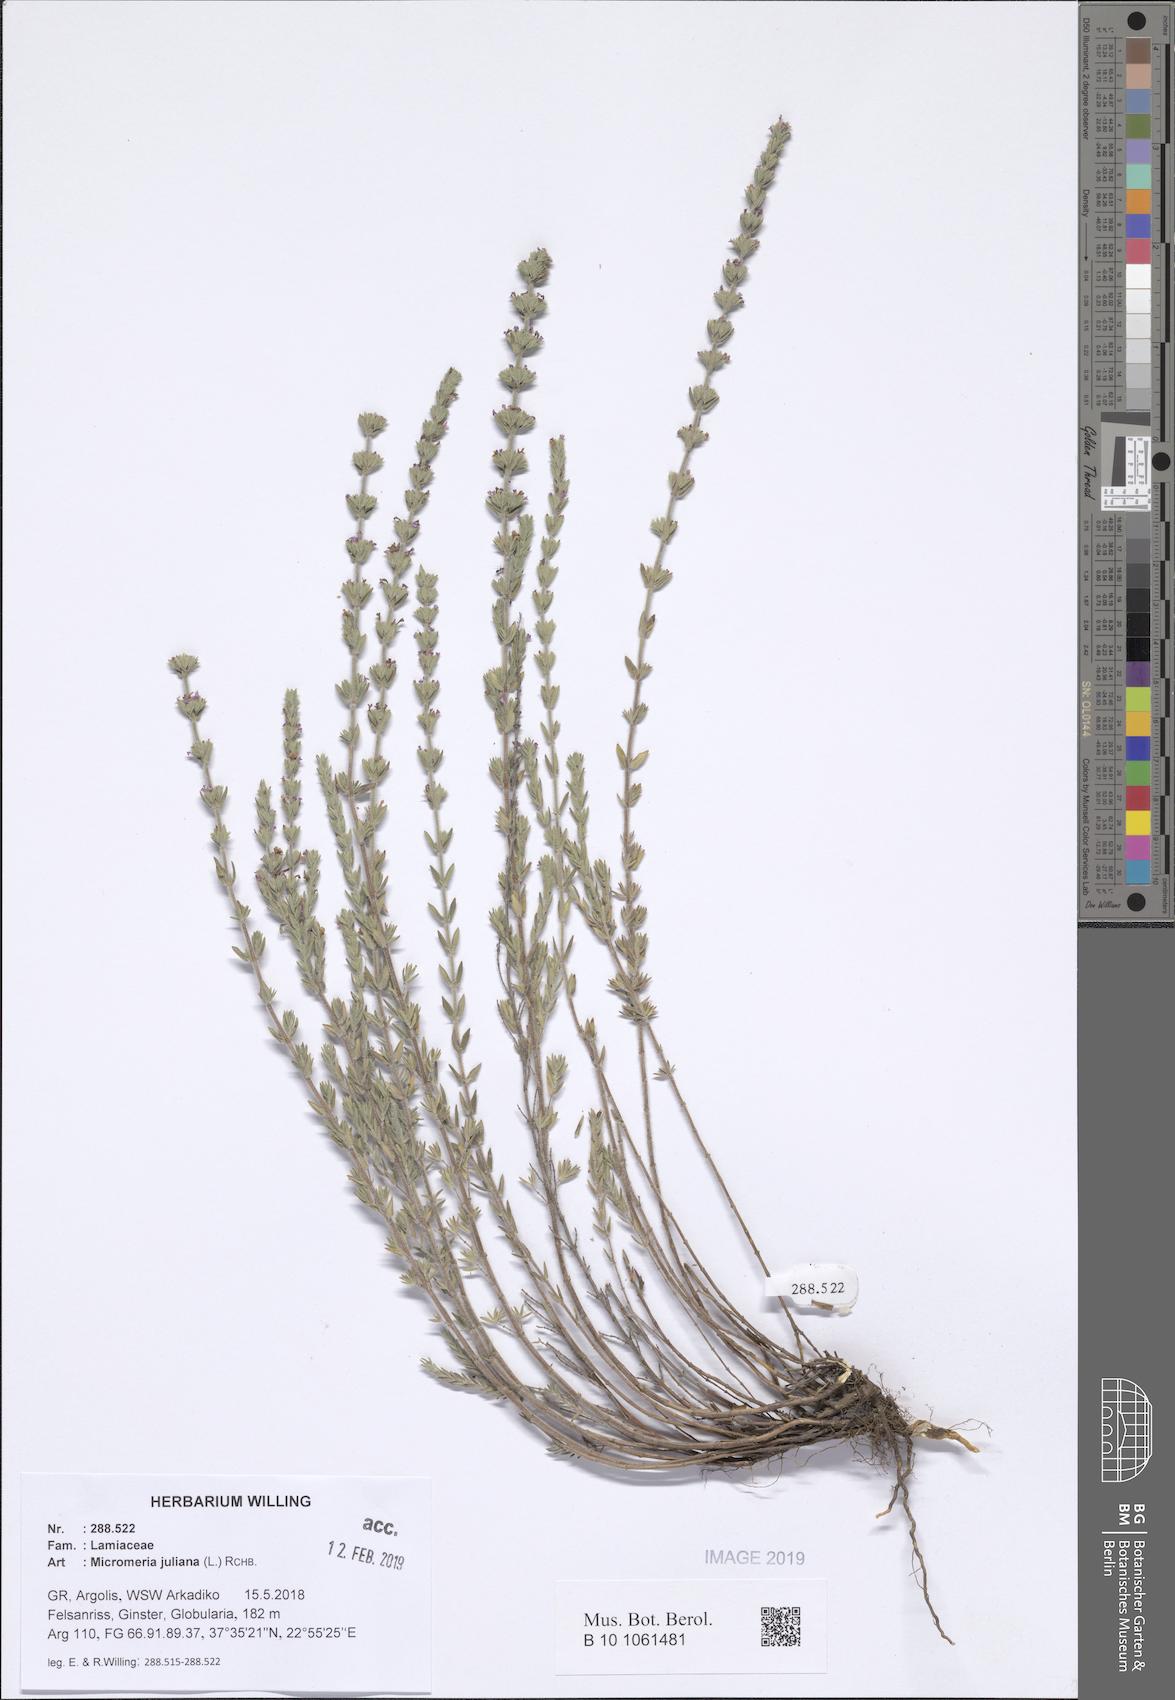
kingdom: Plantae
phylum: Tracheophyta
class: Magnoliopsida
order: Lamiales
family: Lamiaceae
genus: Micromeria
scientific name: Micromeria juliana
